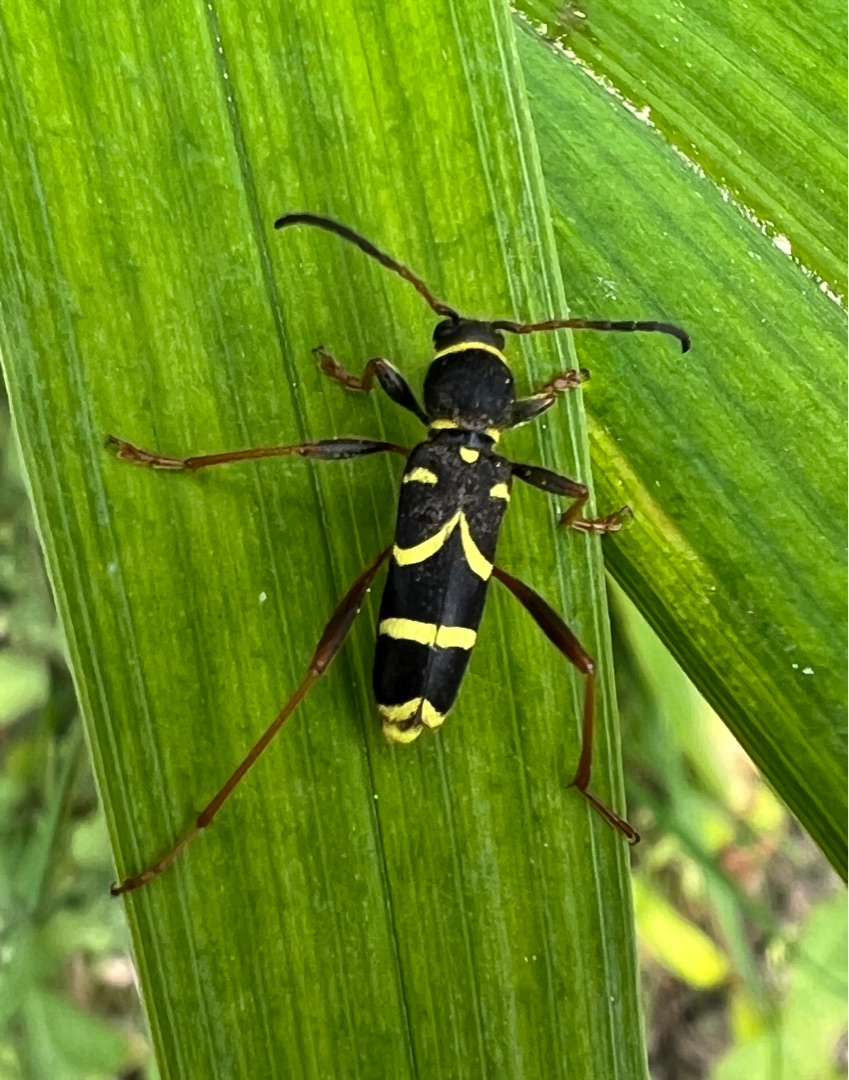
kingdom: Animalia
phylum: Arthropoda
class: Insecta
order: Coleoptera
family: Cerambycidae
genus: Clytus
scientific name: Clytus arietis
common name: Lille hvepsebuk
